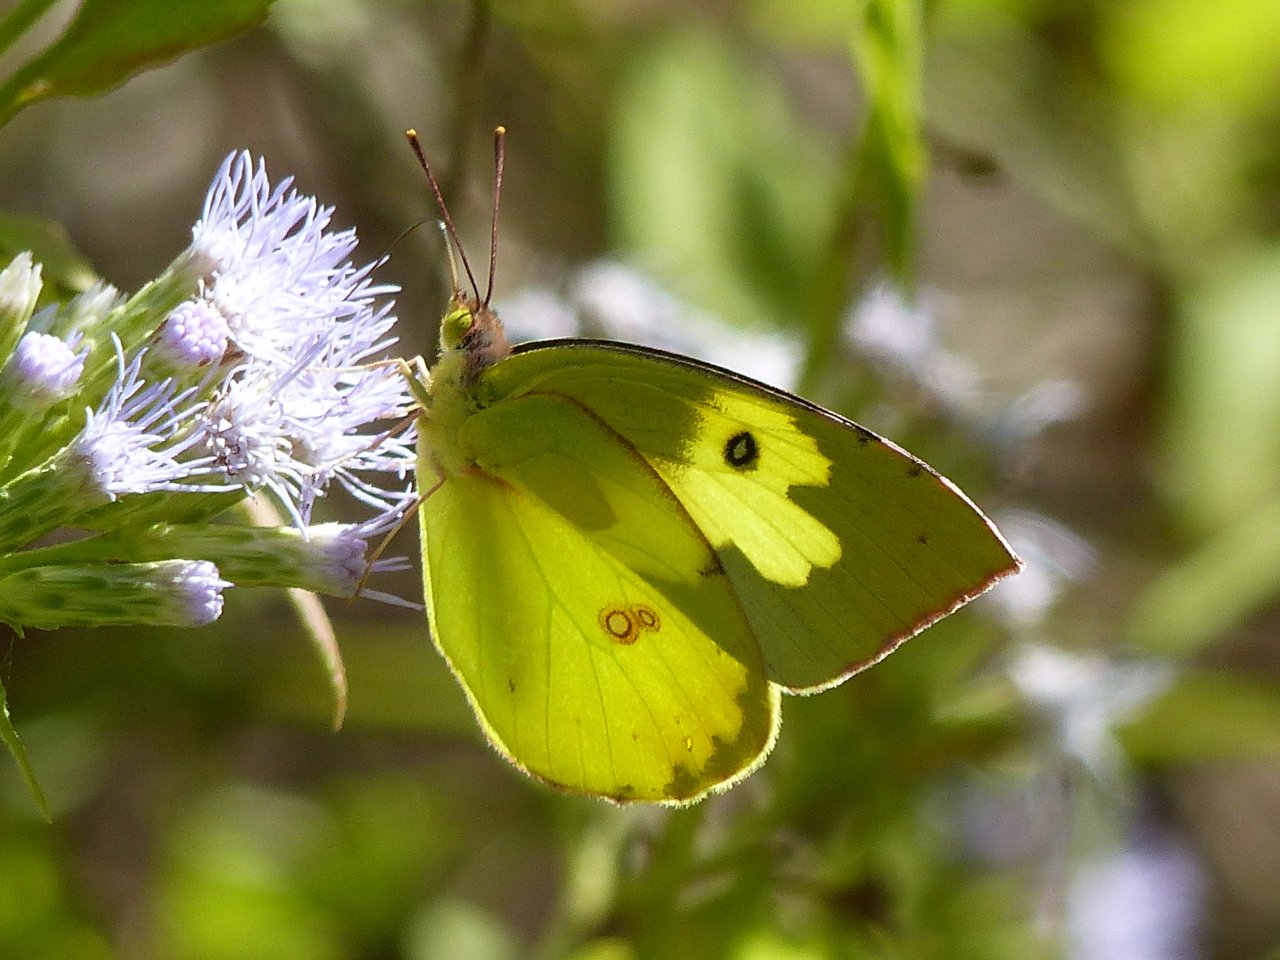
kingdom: Animalia
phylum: Arthropoda
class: Insecta
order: Lepidoptera
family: Pieridae
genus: Zerene
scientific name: Zerene cesonia
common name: Southern Dogface
